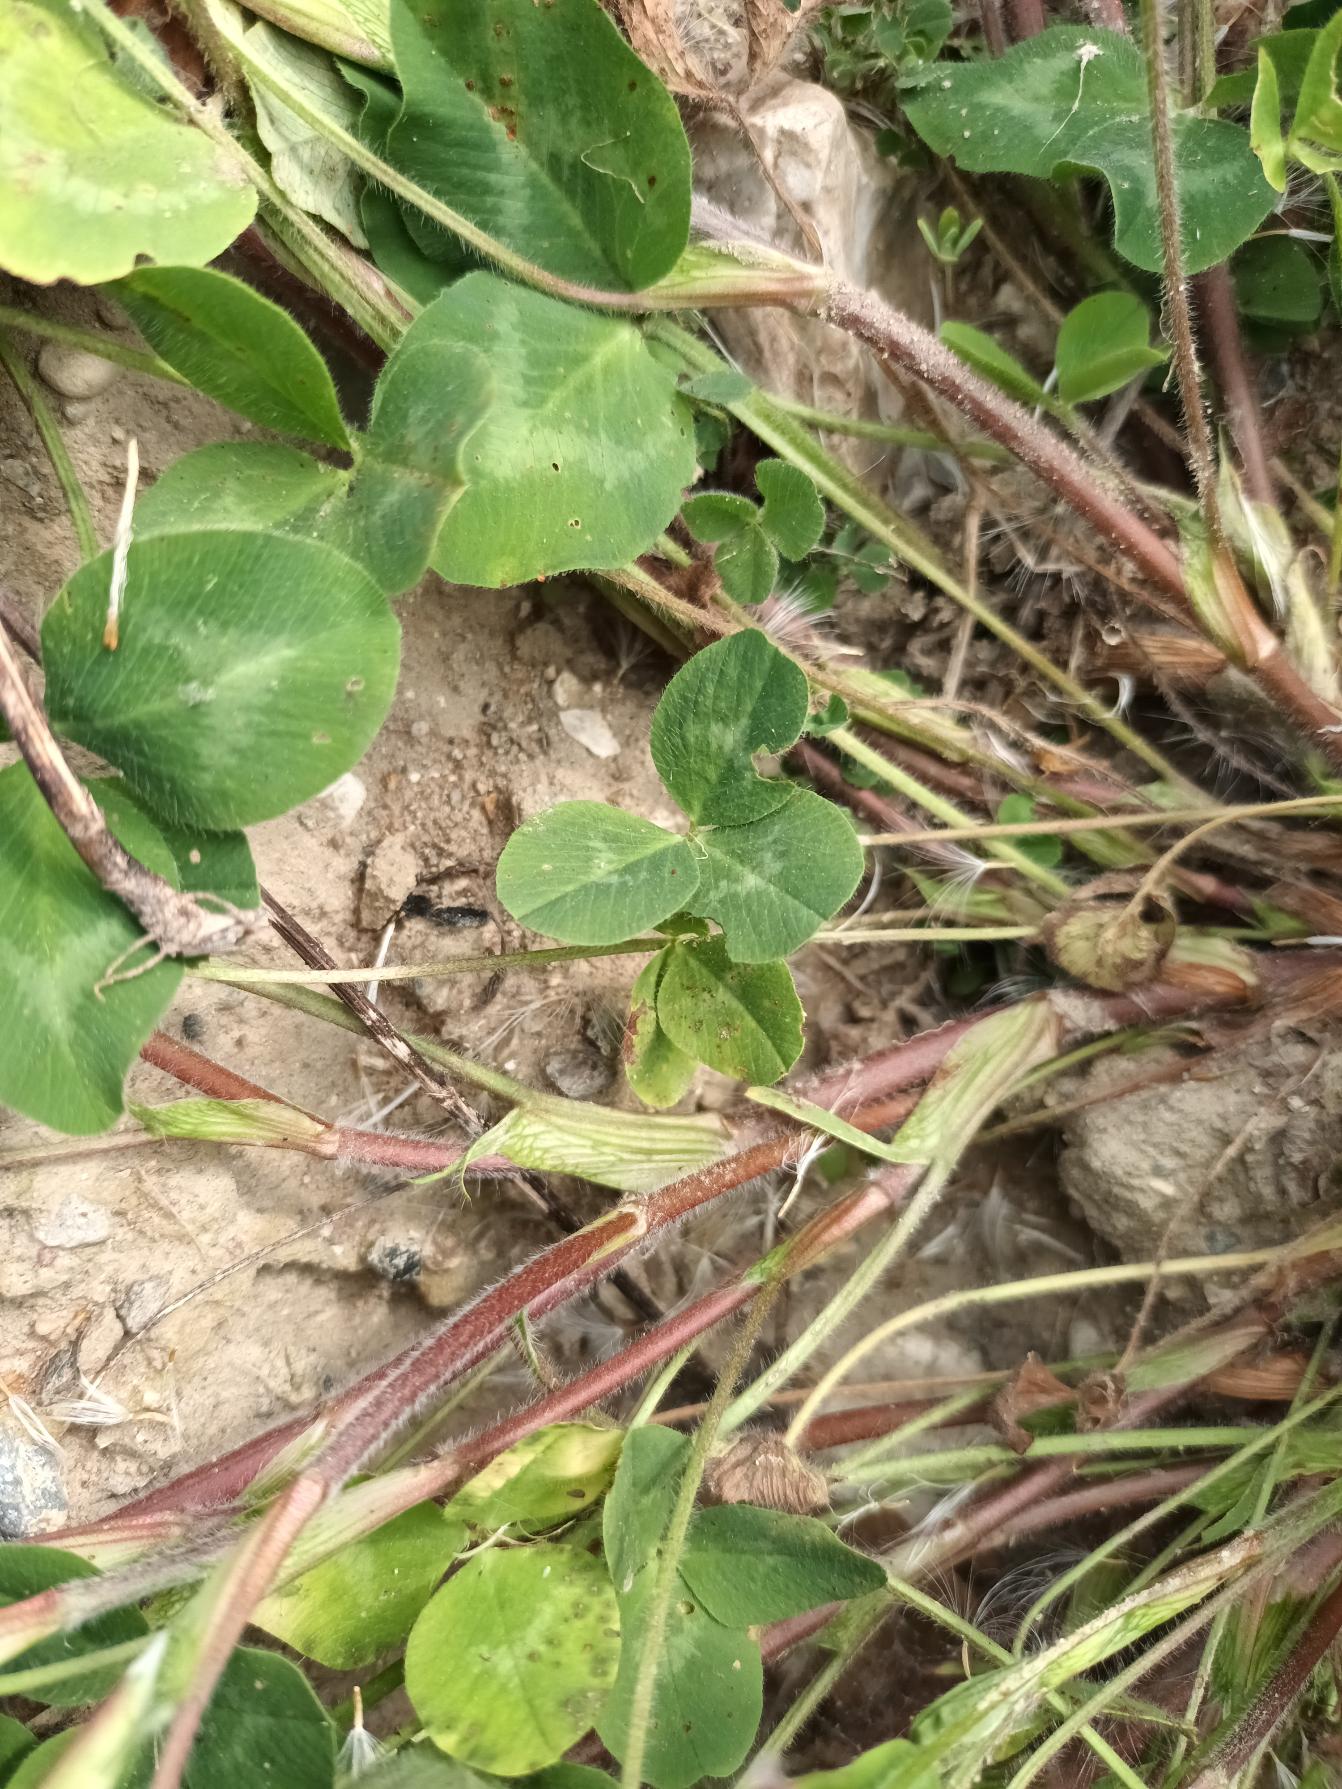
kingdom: Plantae
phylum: Tracheophyta
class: Magnoliopsida
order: Fabales
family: Fabaceae
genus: Trifolium
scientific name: Trifolium pratense
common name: Rød-kløver
